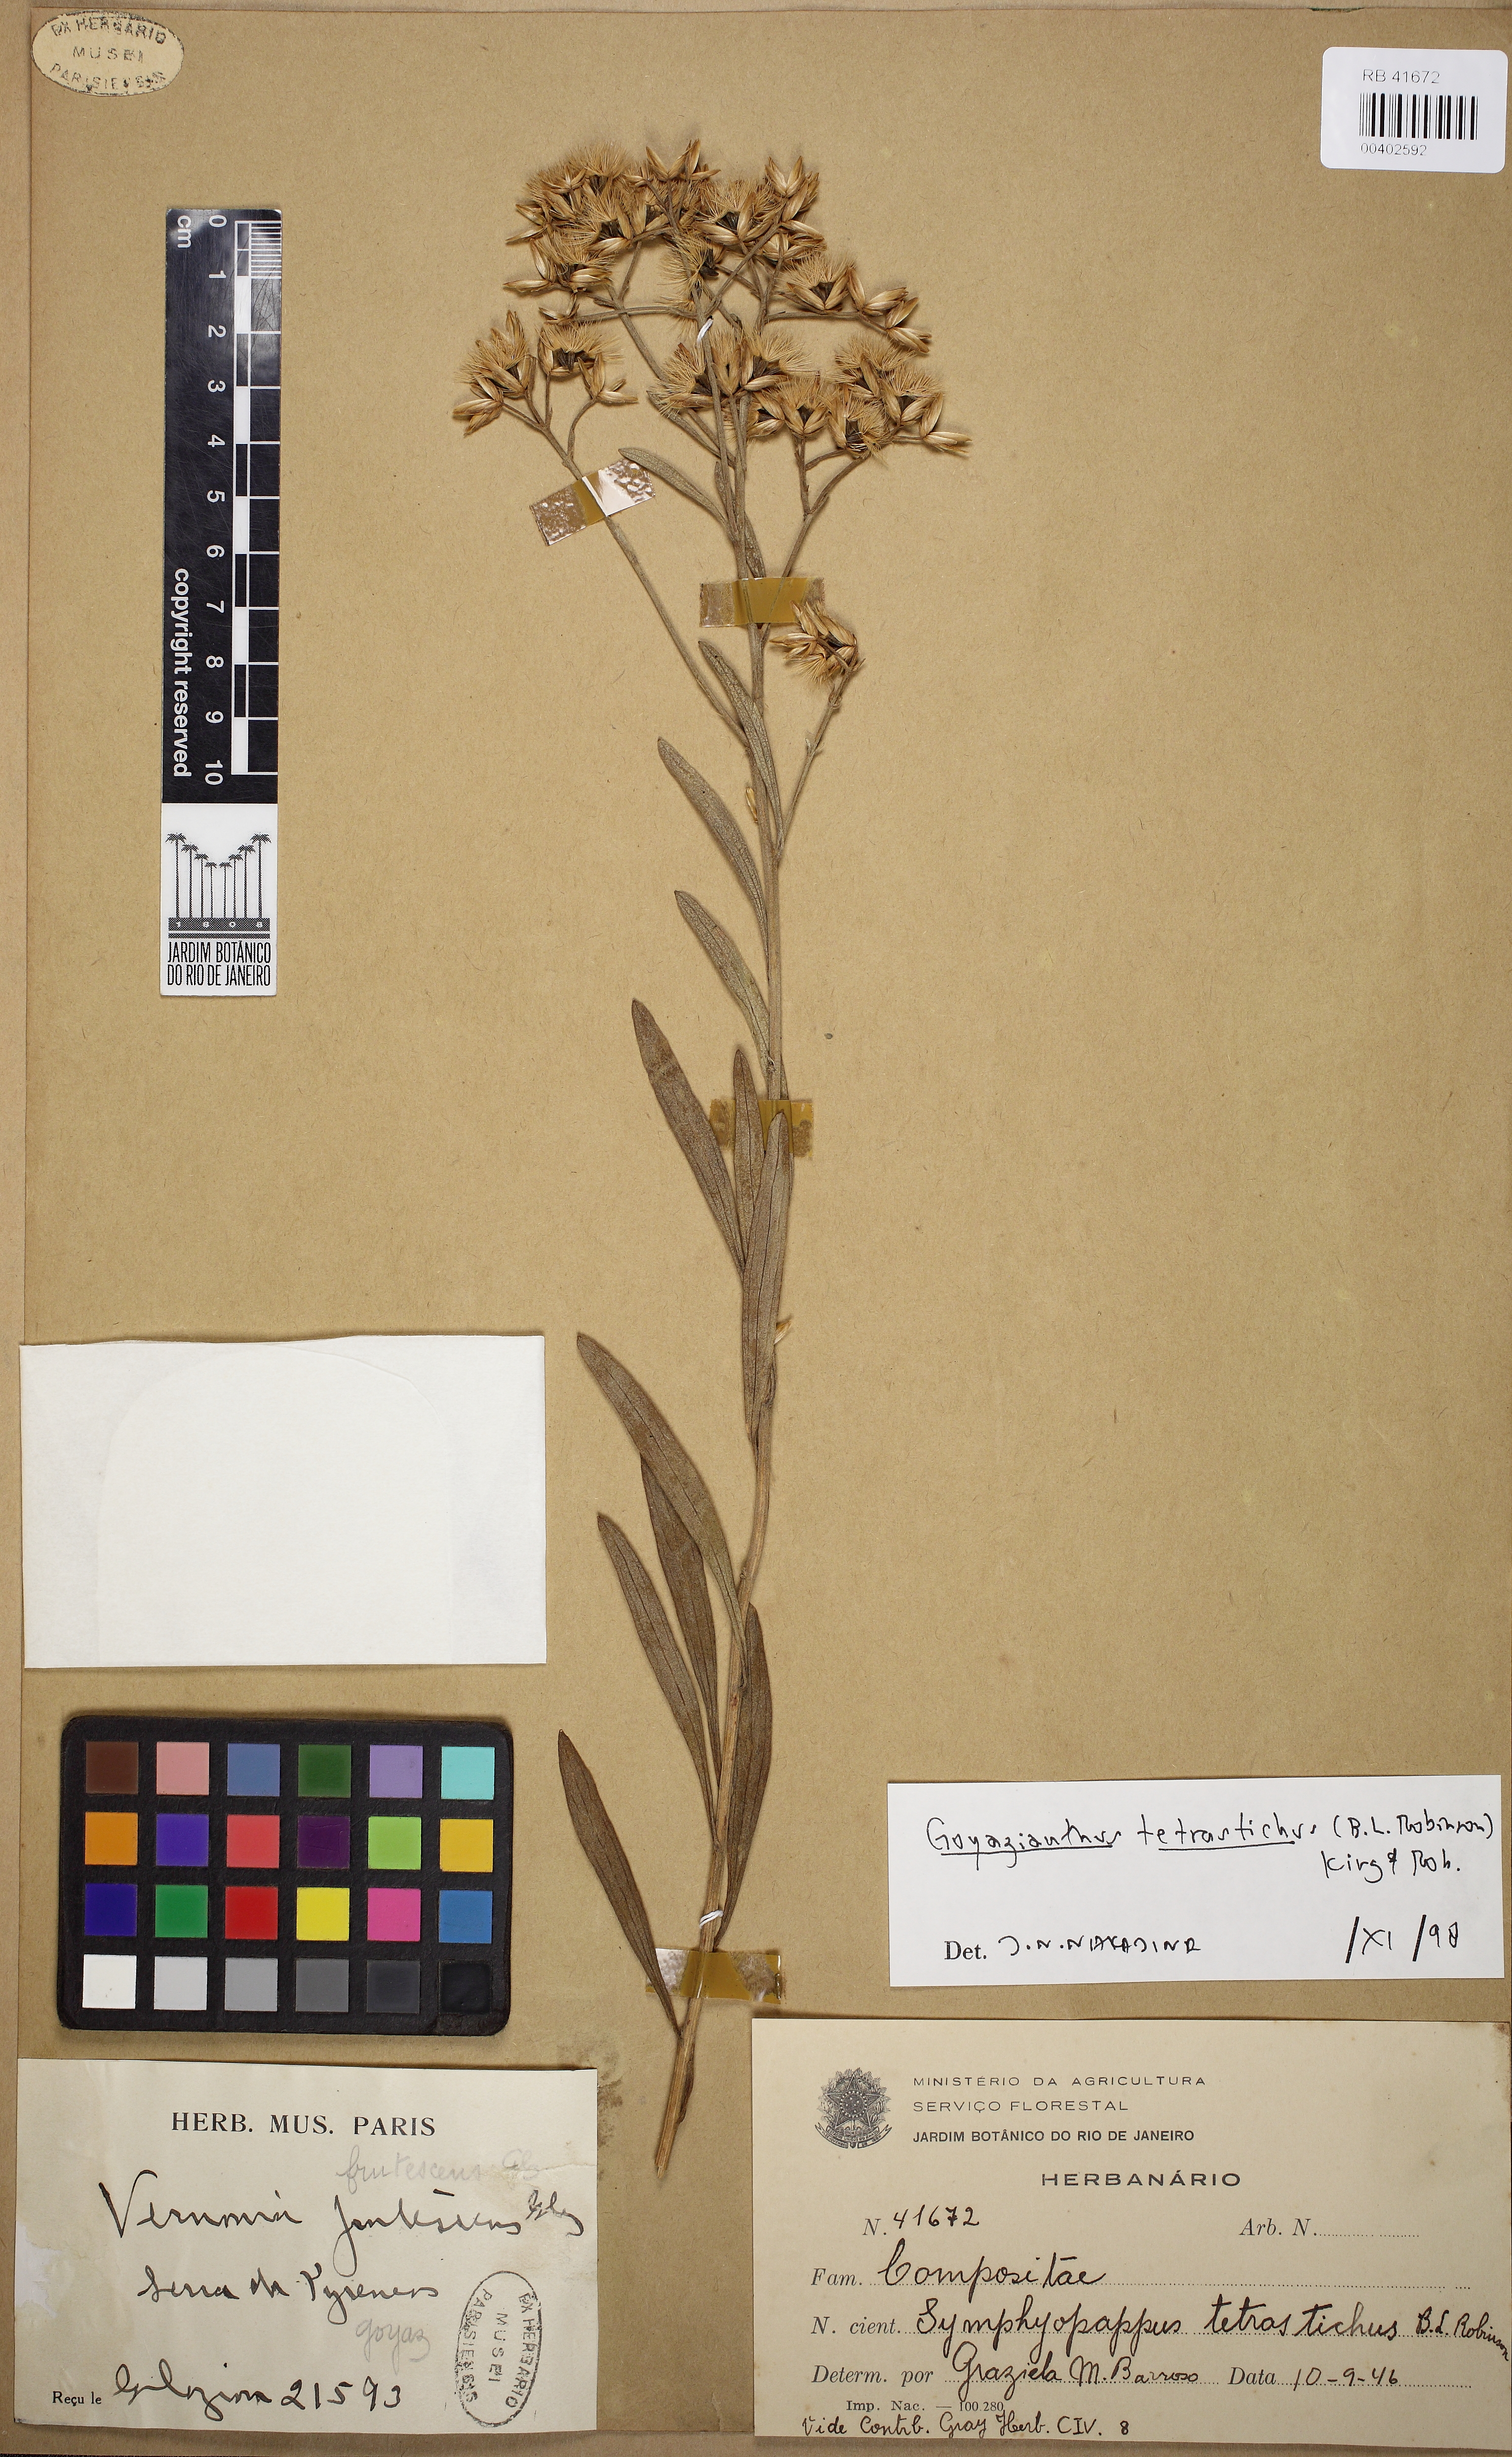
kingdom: Plantae
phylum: Tracheophyta
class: Magnoliopsida
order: Asterales
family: Asteraceae
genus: Goyazianthus
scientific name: Goyazianthus tetrastichus
